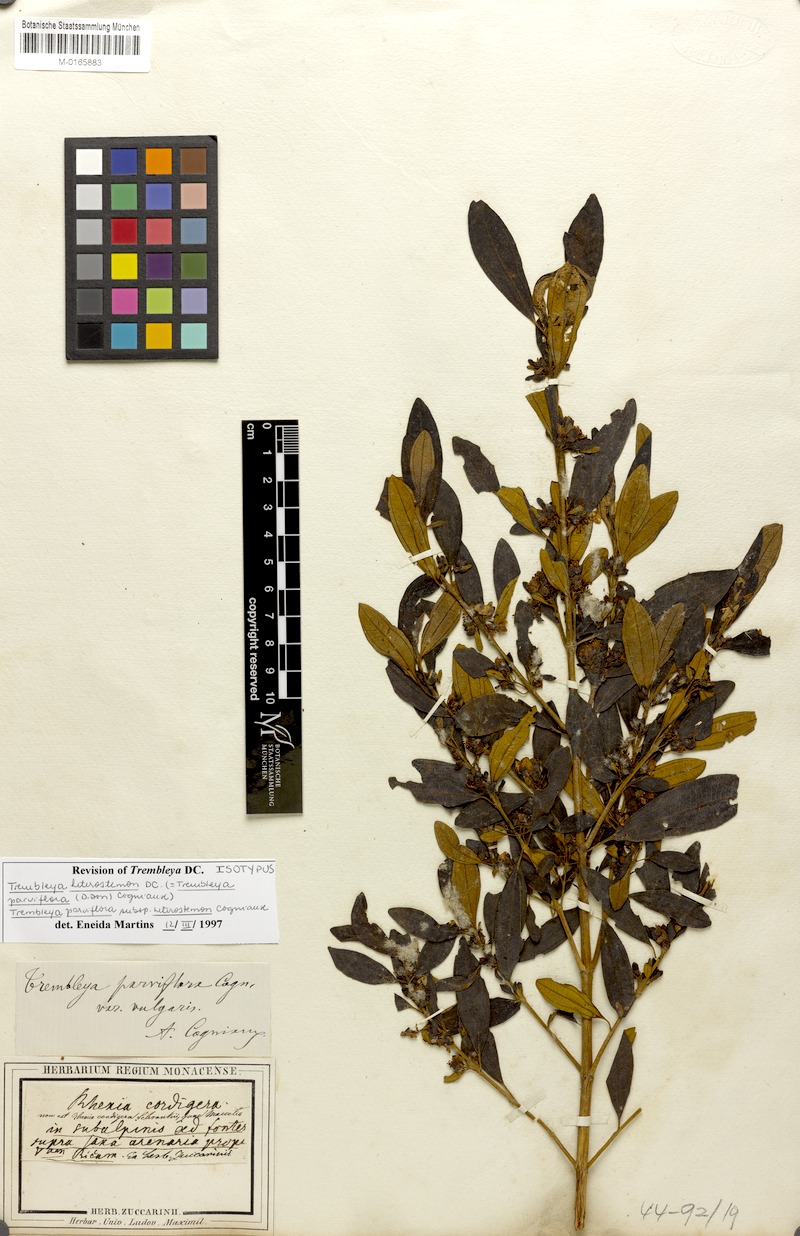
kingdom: Plantae
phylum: Tracheophyta
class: Magnoliopsida
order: Myrtales
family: Melastomataceae
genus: Microlicia
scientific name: Microlicia parviflora
